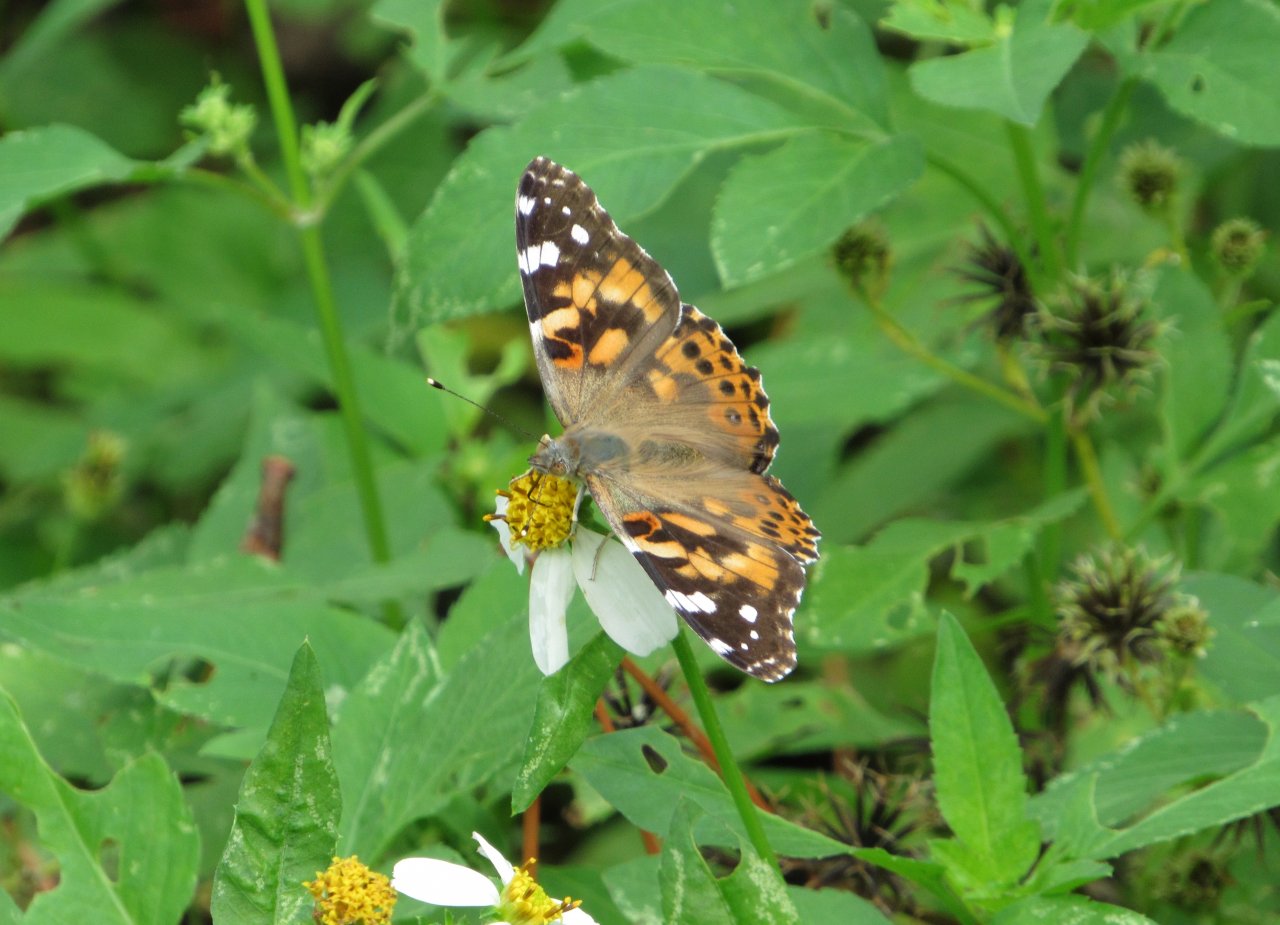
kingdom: Animalia
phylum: Arthropoda
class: Insecta
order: Lepidoptera
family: Nymphalidae
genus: Vanessa
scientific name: Vanessa cardui
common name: Painted Lady
